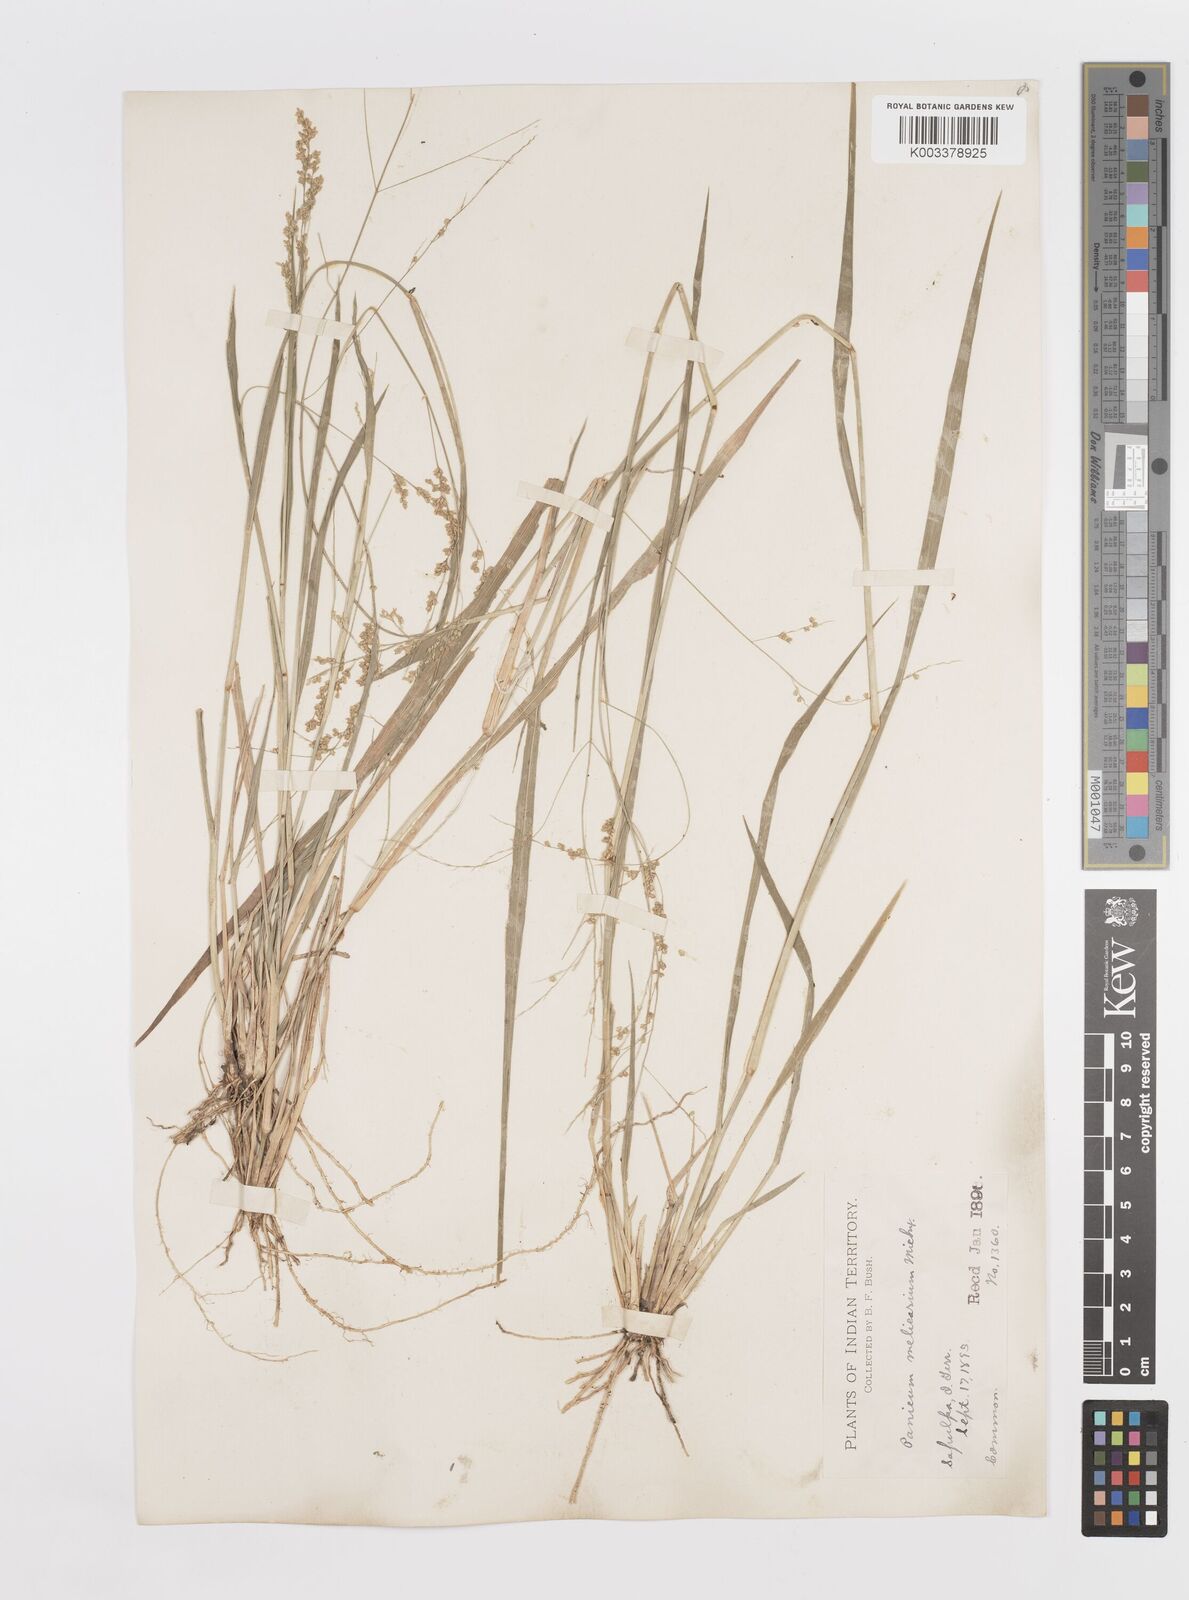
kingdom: Plantae
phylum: Tracheophyta
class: Liliopsida
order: Poales
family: Poaceae
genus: Steinchisma
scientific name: Steinchisma hians
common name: Gaping panic grass
